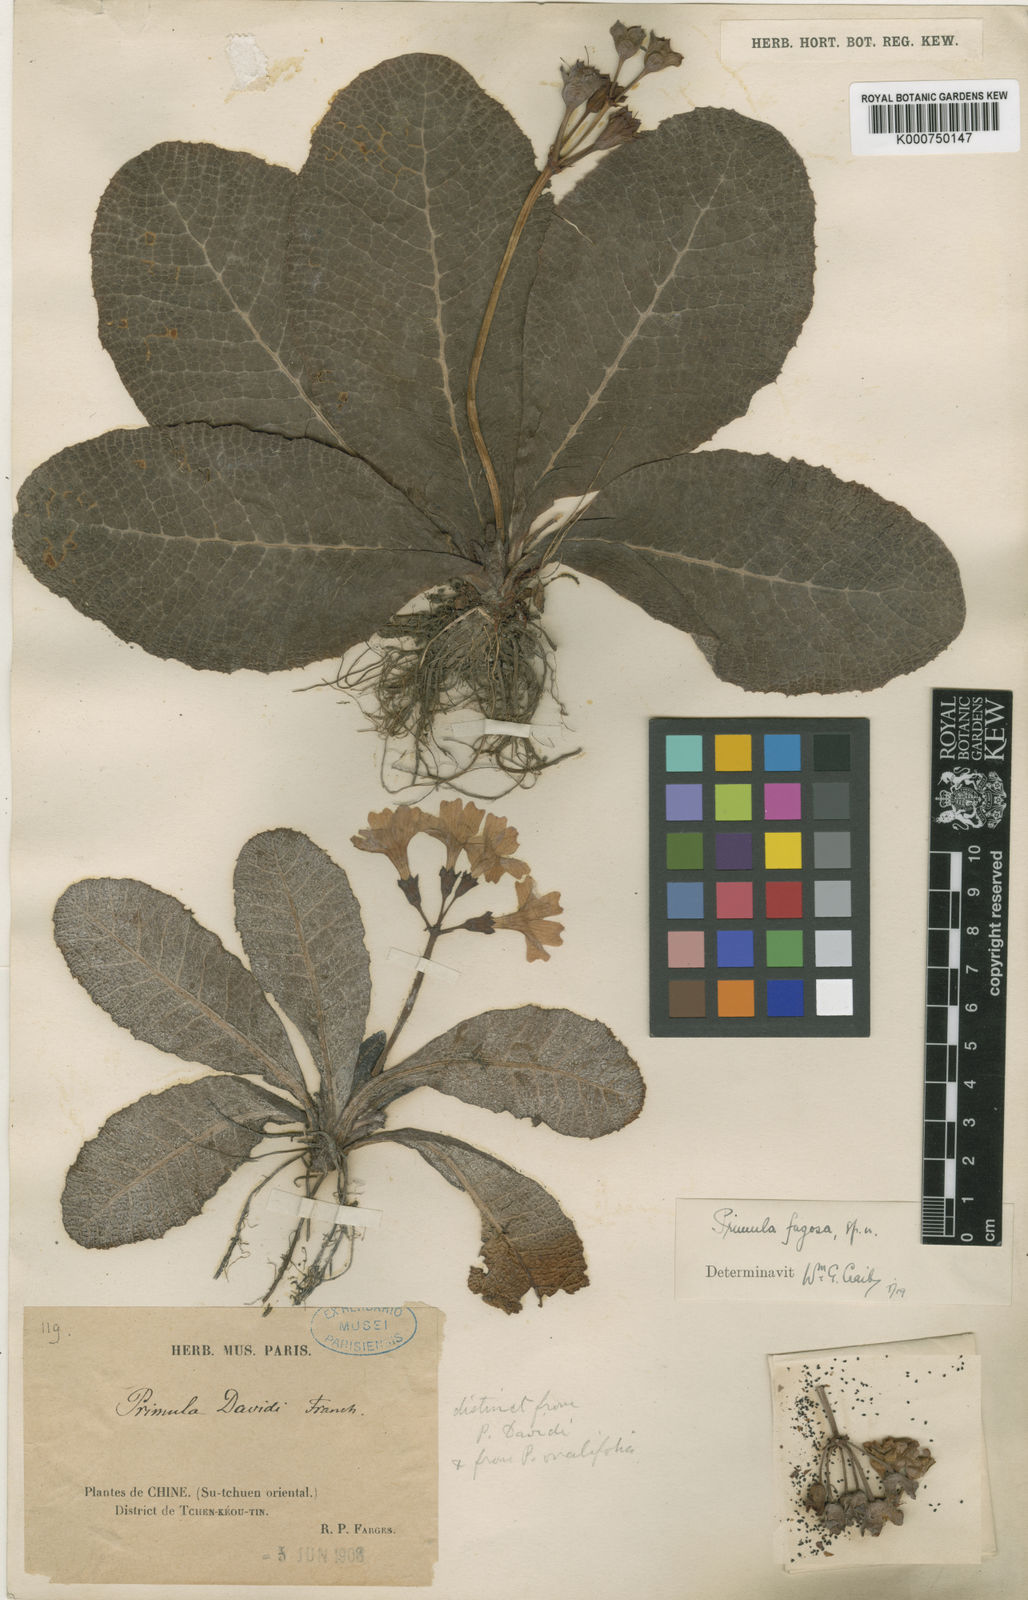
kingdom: Plantae
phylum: Tracheophyta
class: Magnoliopsida
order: Ericales
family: Primulaceae
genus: Primula
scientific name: Primula fagosa
